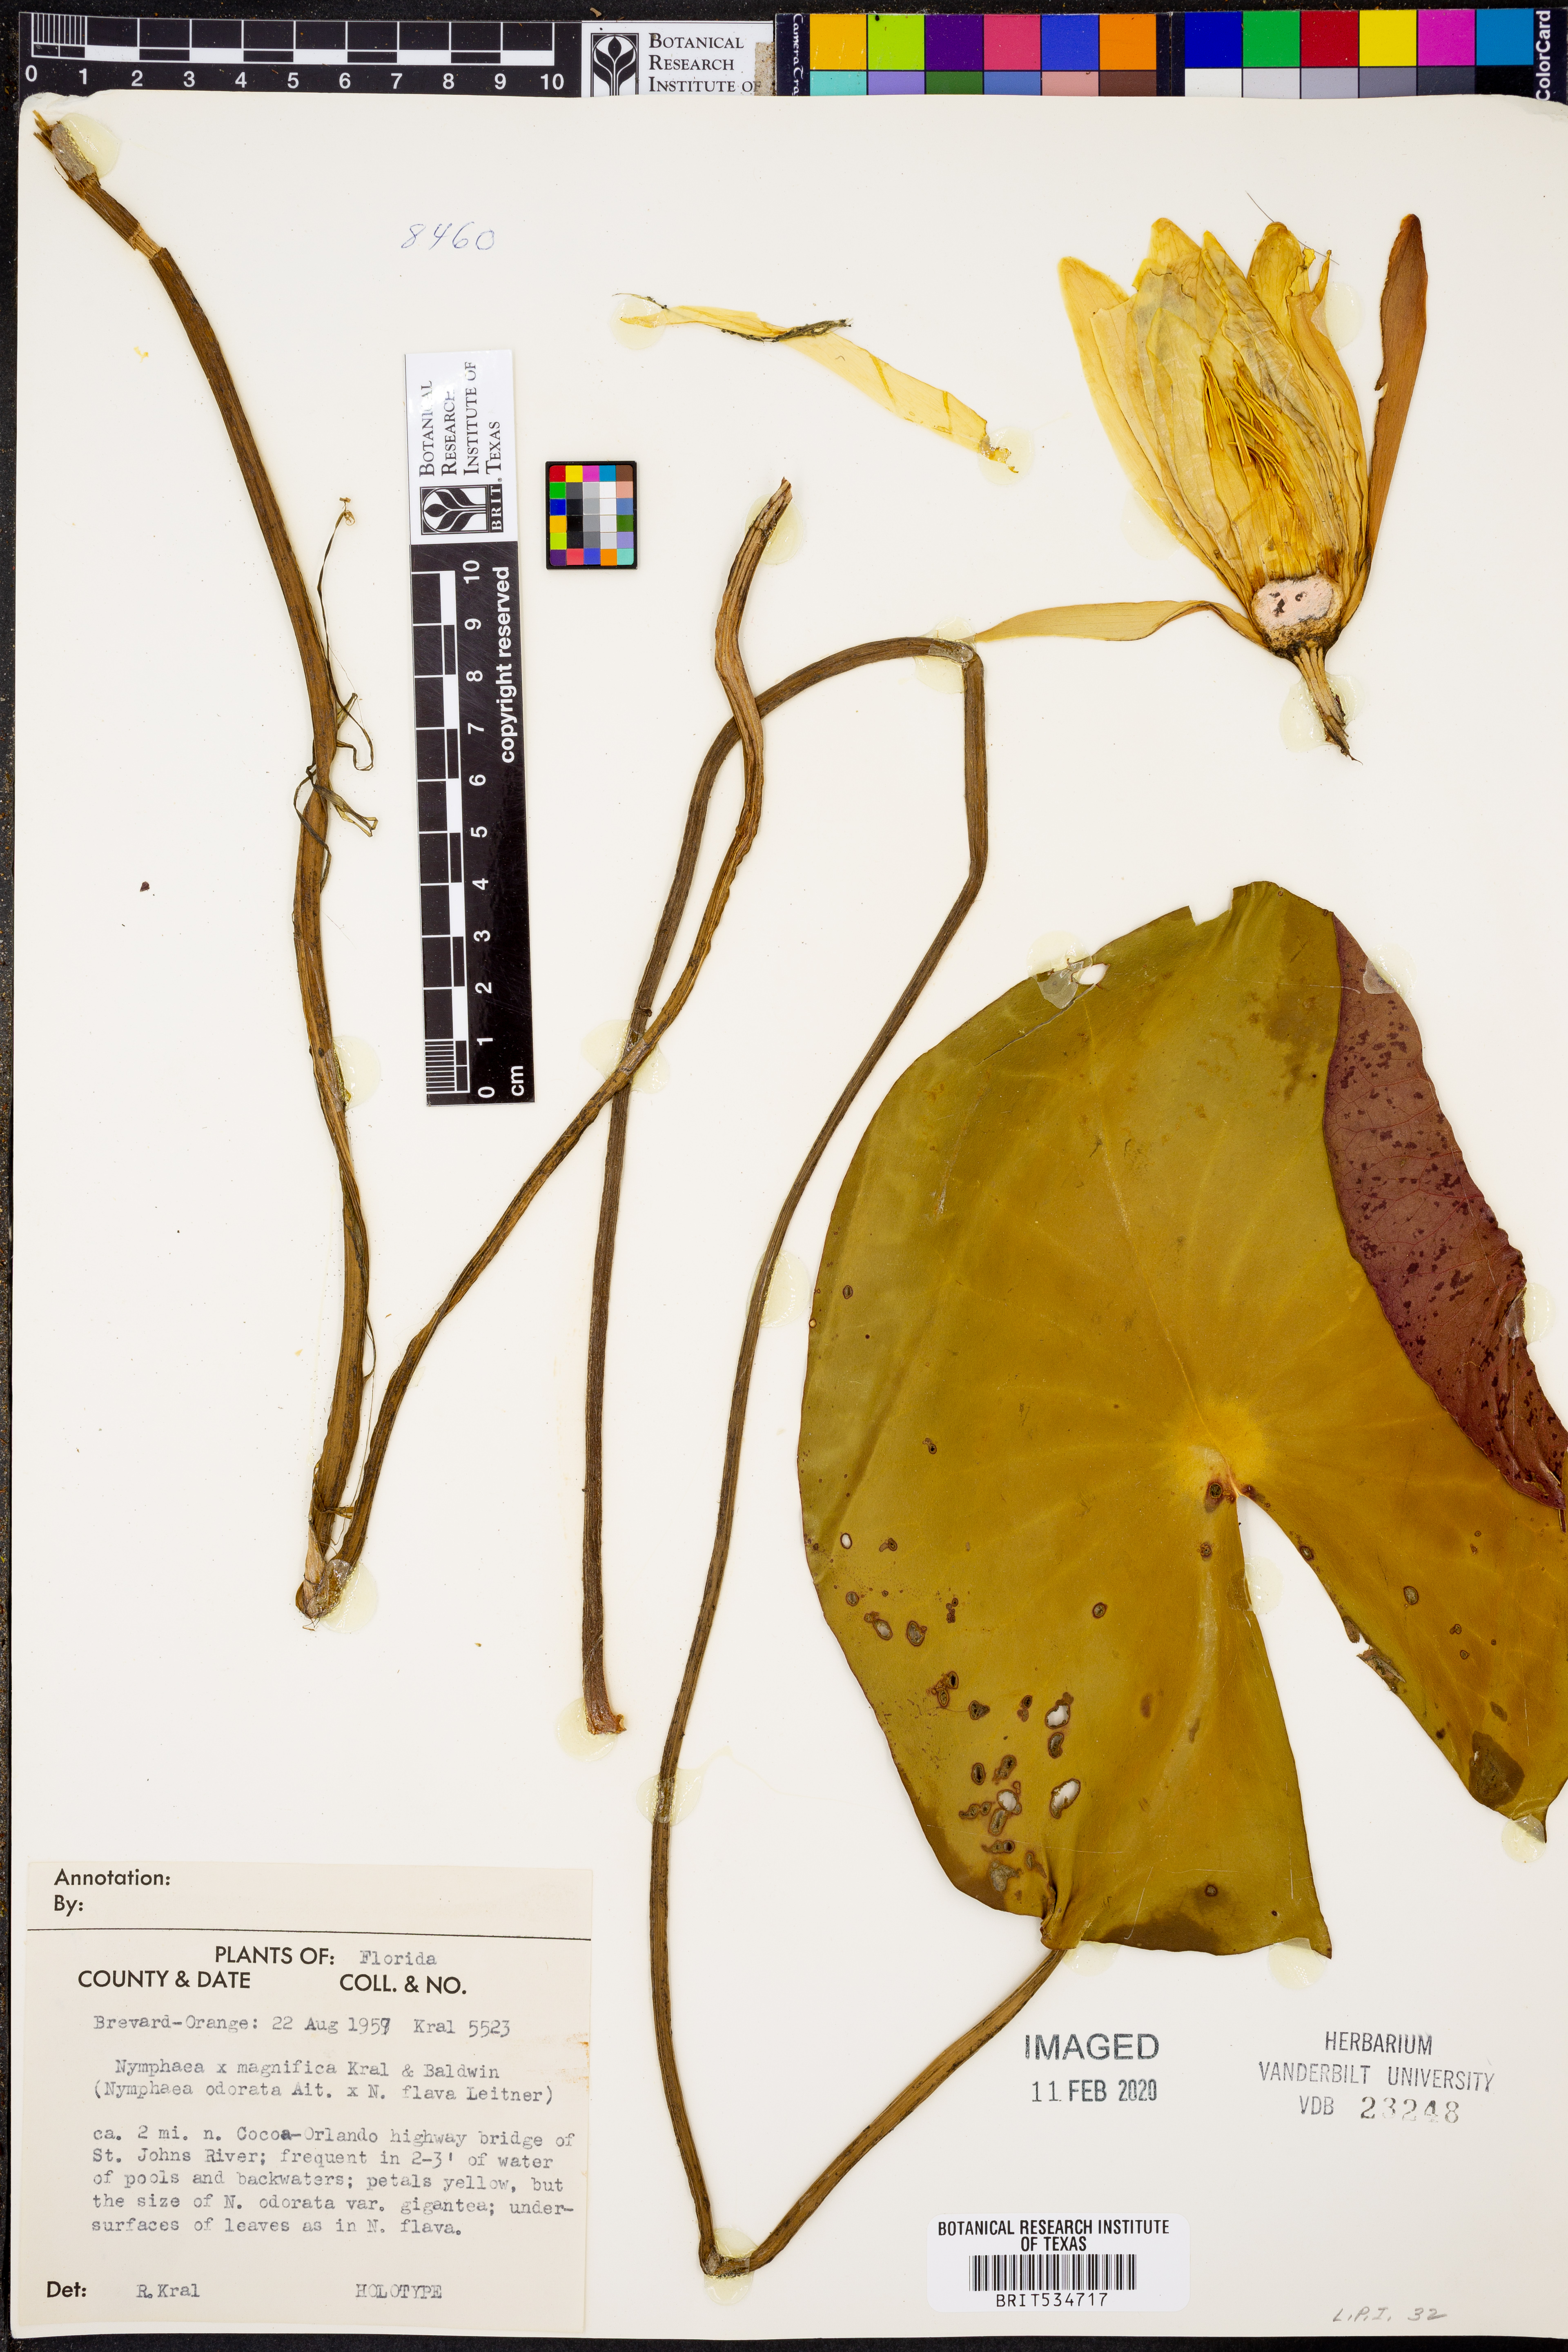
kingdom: Plantae
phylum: Tracheophyta
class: Magnoliopsida
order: Nymphaeales
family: Nymphaeaceae
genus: Nymphaea
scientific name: Nymphaea
